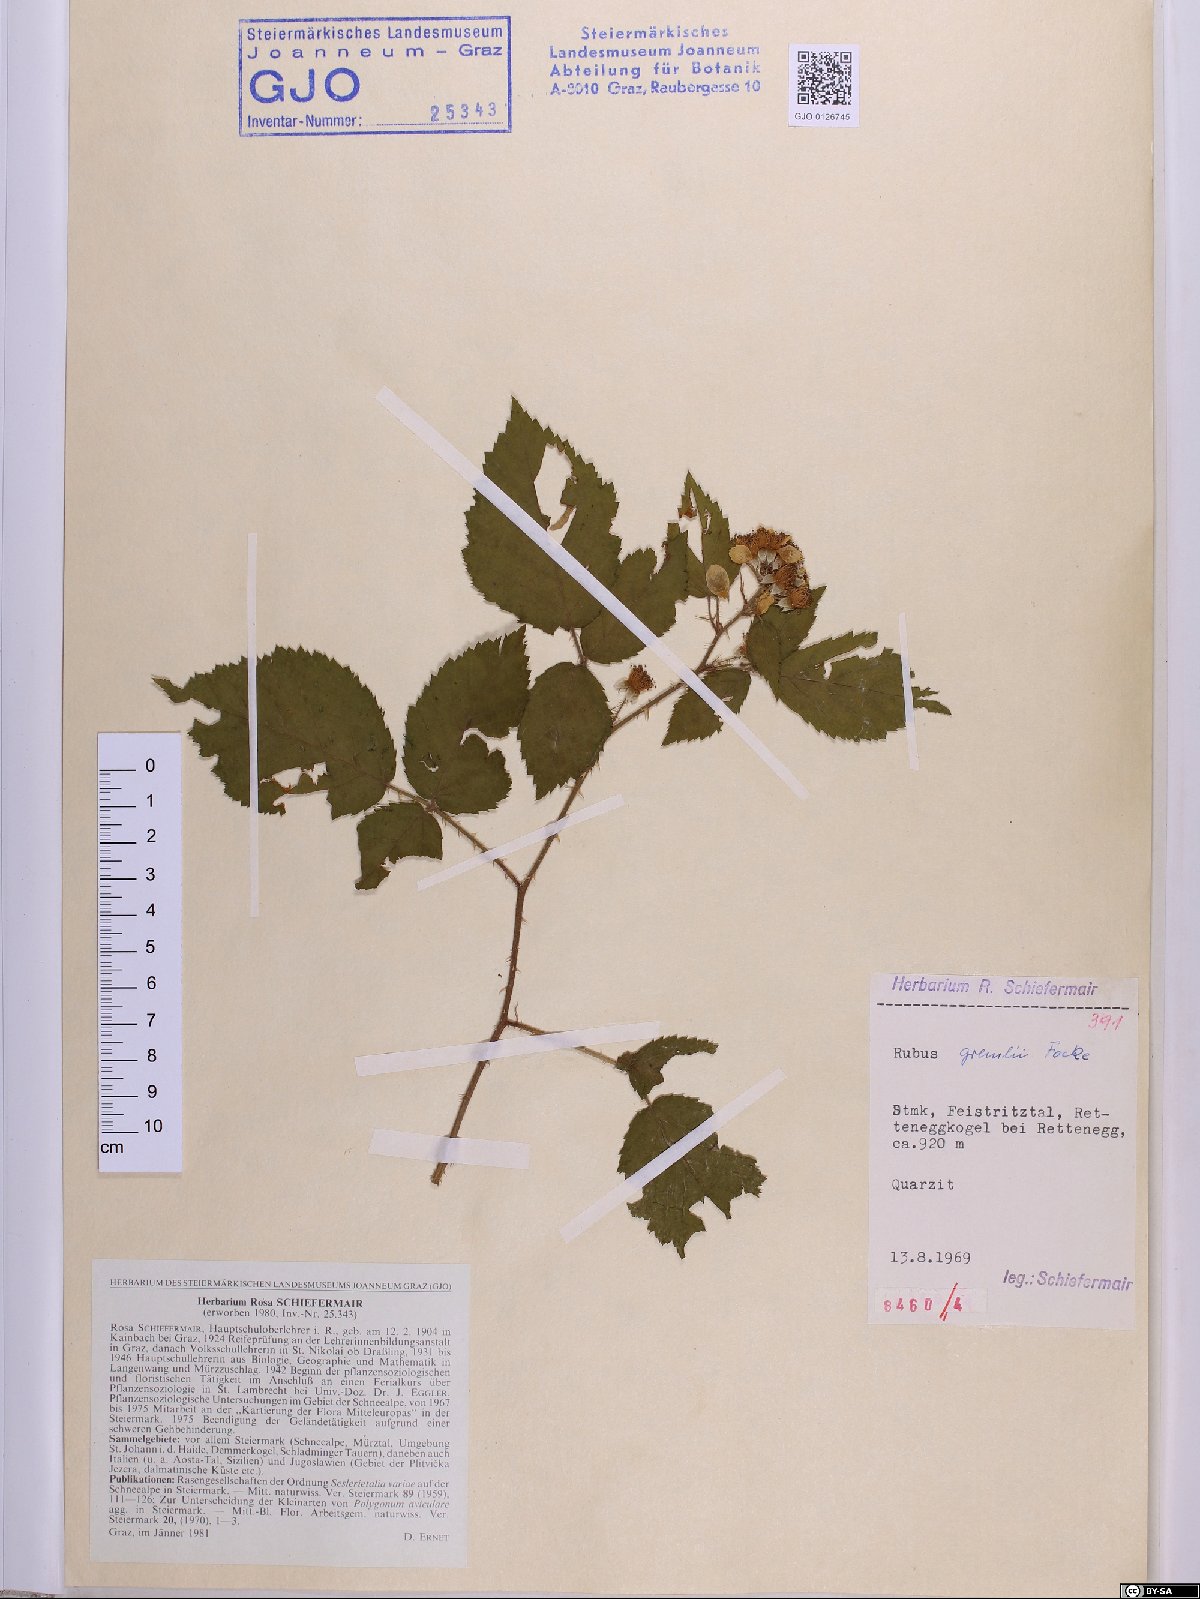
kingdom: Plantae
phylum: Tracheophyta
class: Magnoliopsida
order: Rosales
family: Rosaceae
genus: Rubus
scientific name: Rubus gremlii
